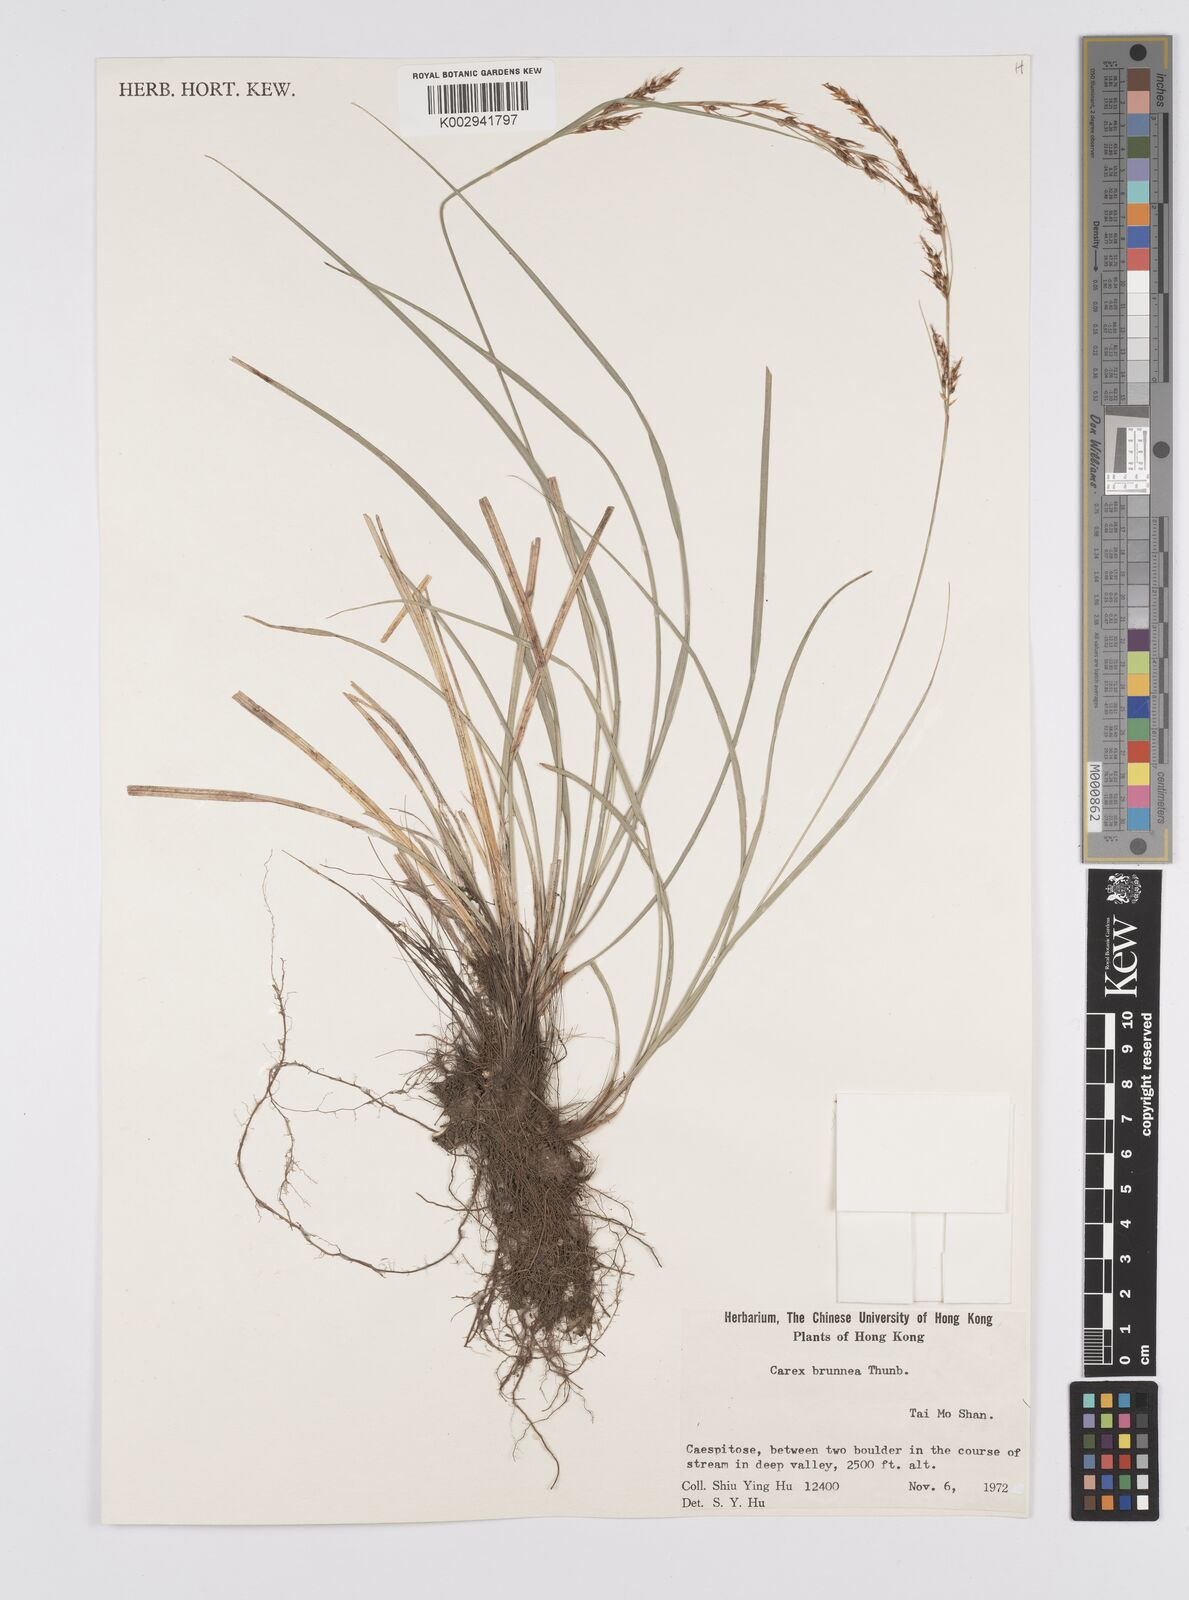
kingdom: Plantae
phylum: Tracheophyta
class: Liliopsida
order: Poales
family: Cyperaceae
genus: Carex
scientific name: Carex brunnea
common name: Greater brown sedge
